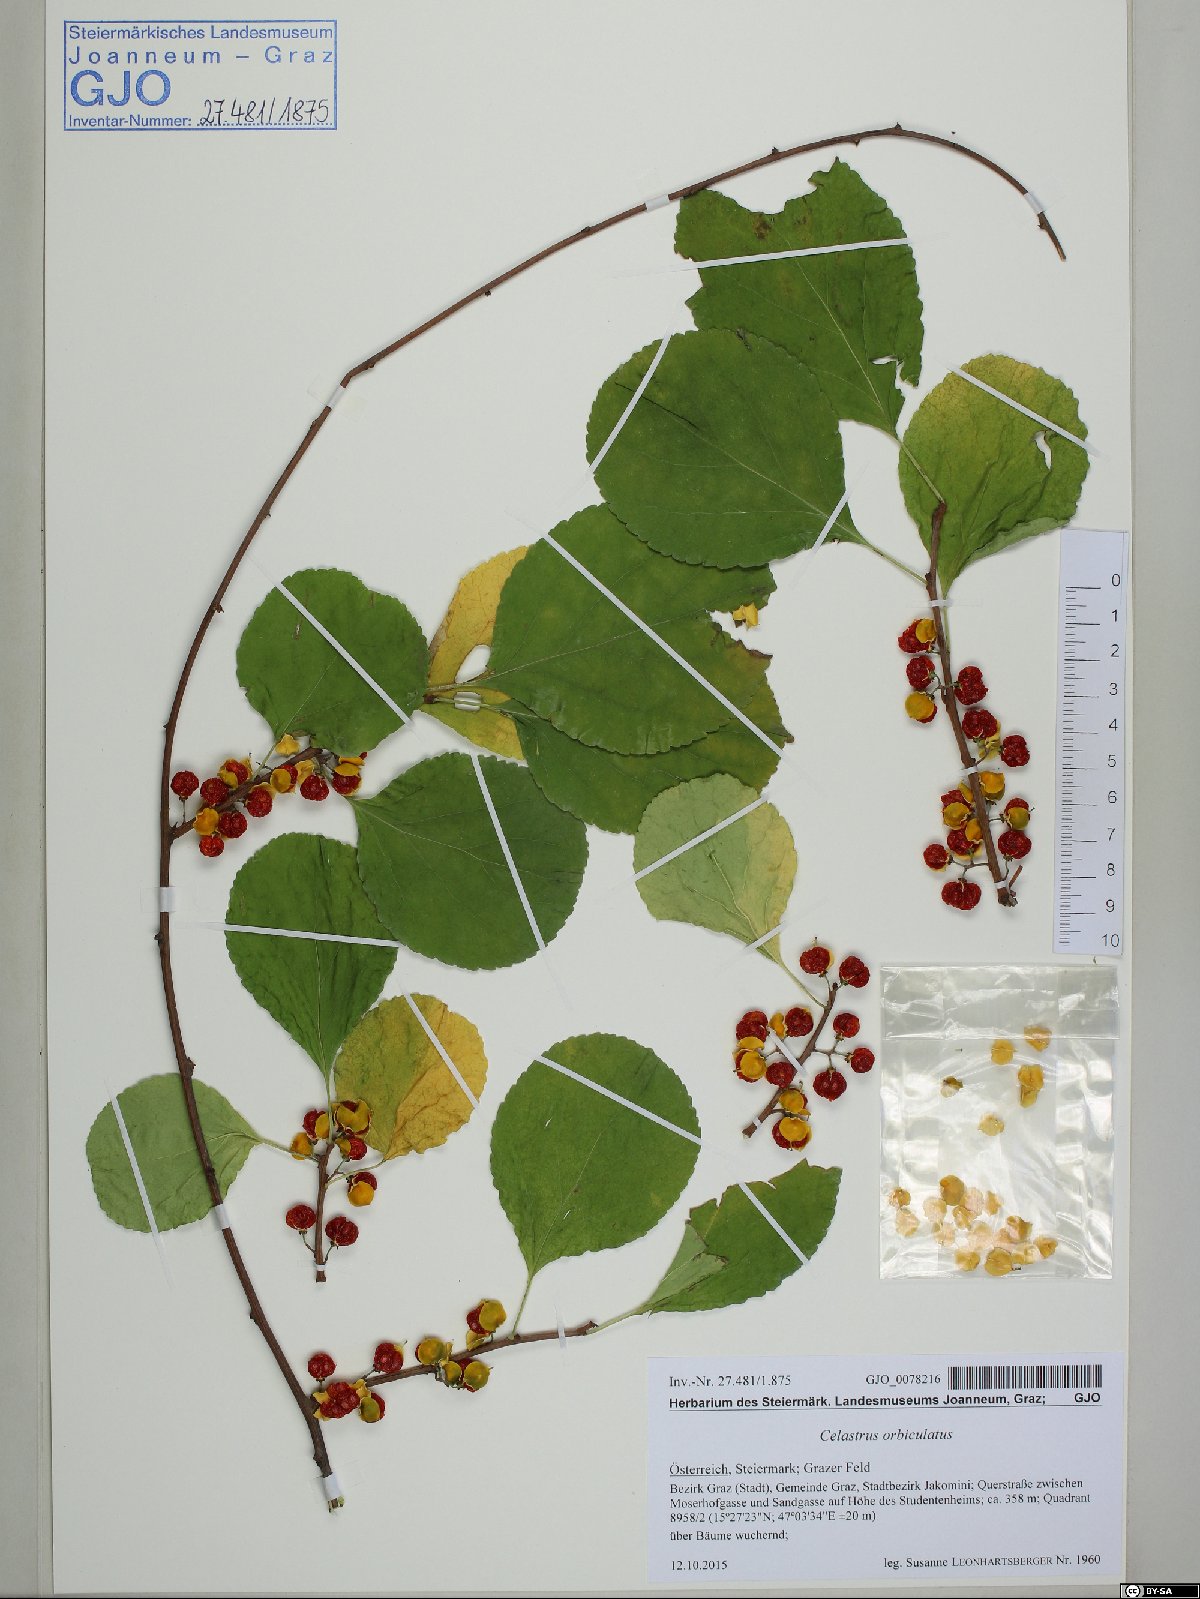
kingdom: Plantae
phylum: Tracheophyta
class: Magnoliopsida
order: Celastrales
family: Celastraceae
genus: Celastrus
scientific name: Celastrus orbiculatus
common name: Oriental bittersweet
